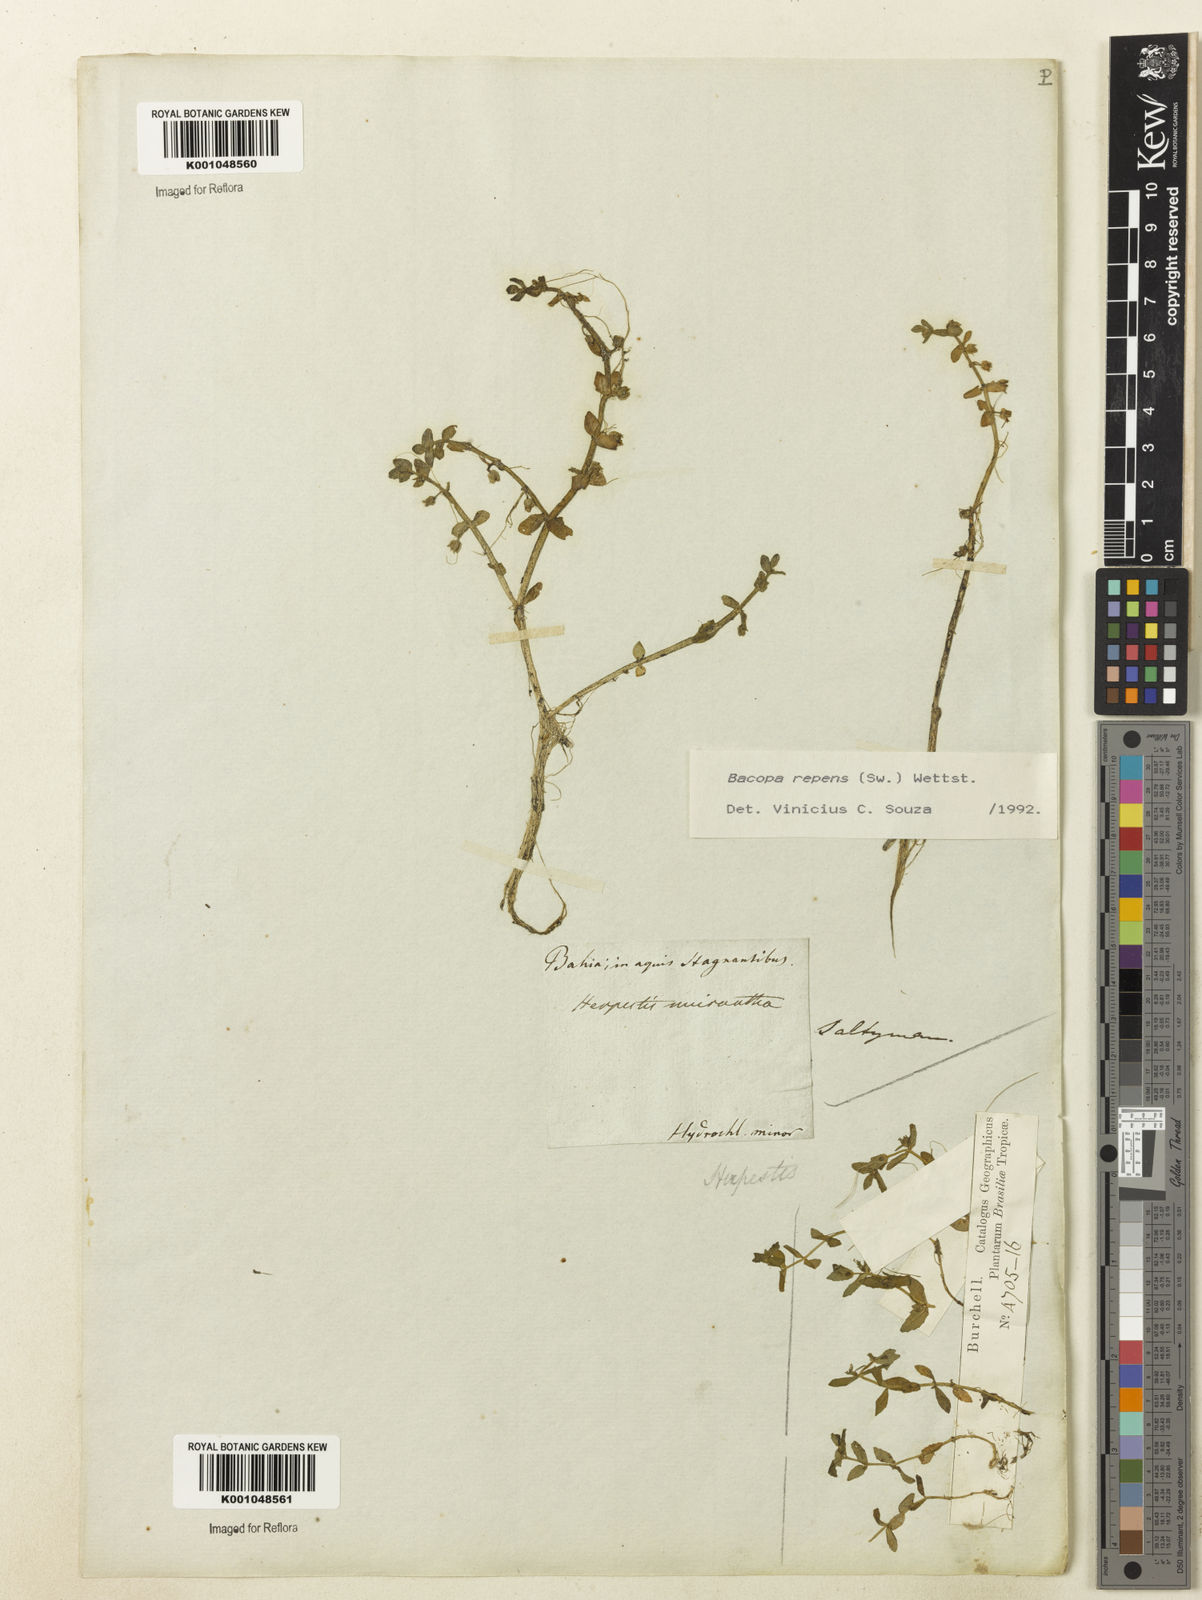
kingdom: Plantae
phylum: Tracheophyta
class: Magnoliopsida
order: Lamiales
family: Plantaginaceae
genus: Bacopa
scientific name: Bacopa repens
